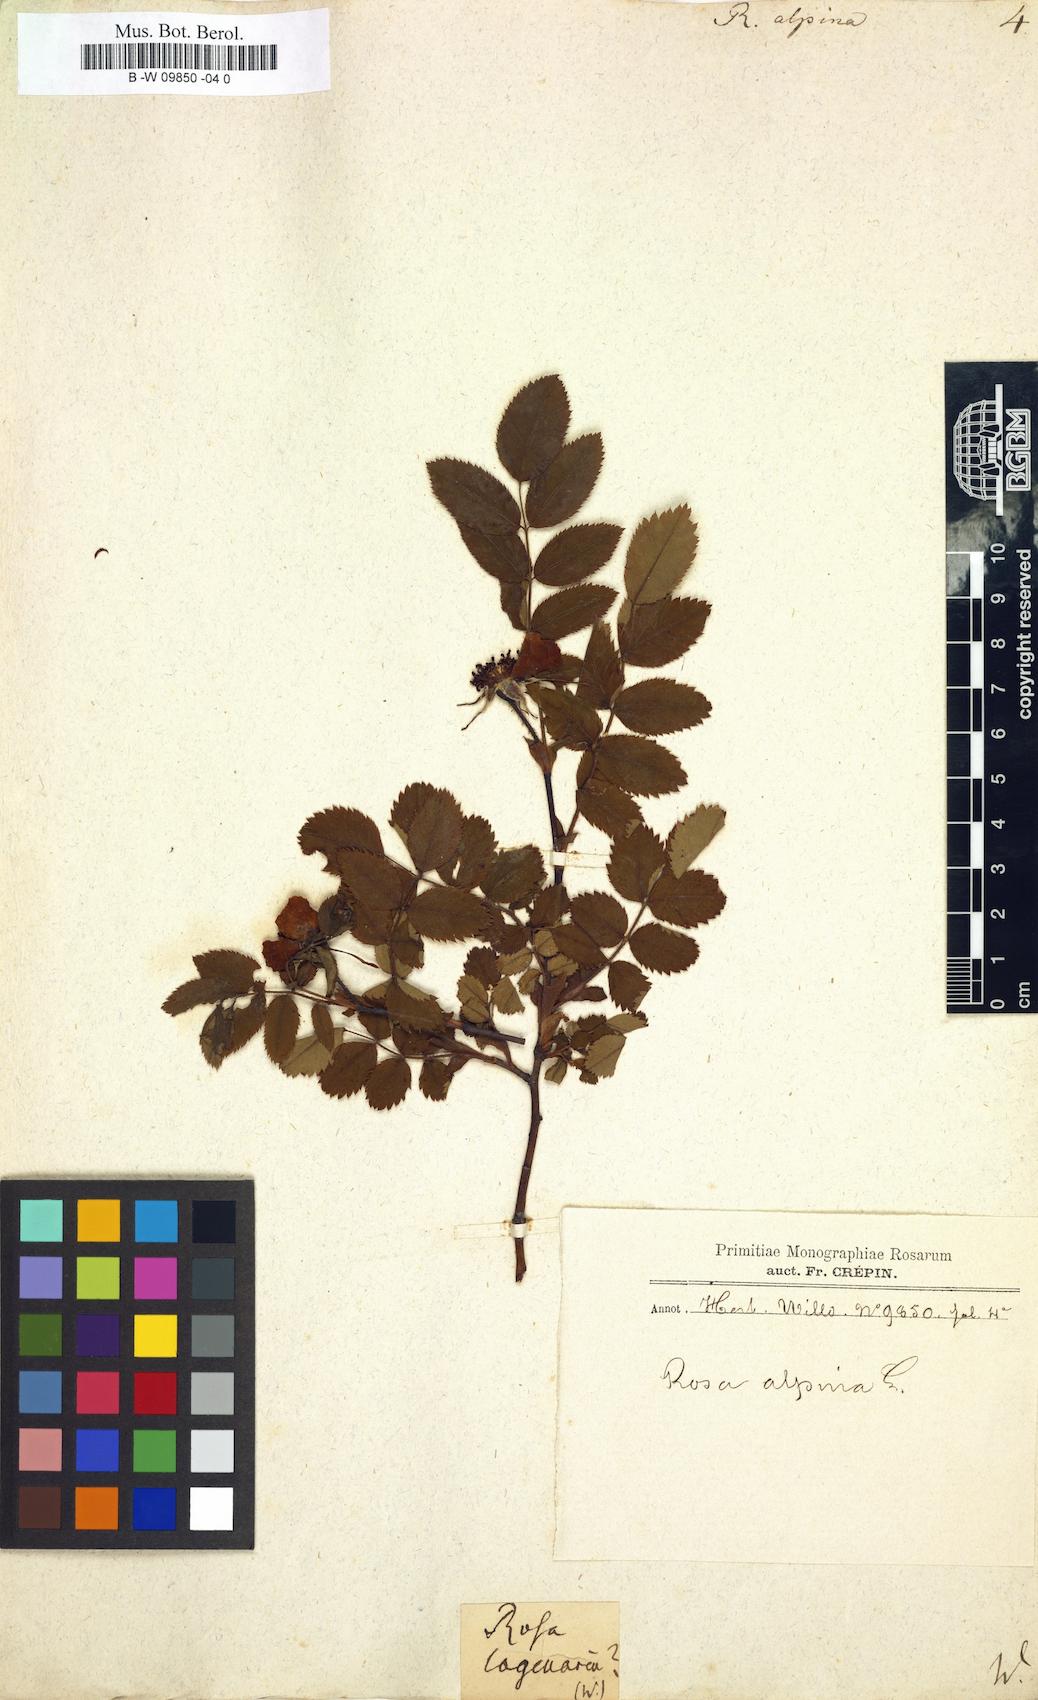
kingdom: Plantae
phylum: Tracheophyta
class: Magnoliopsida
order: Rosales
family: Rosaceae
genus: Rosa
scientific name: Rosa
